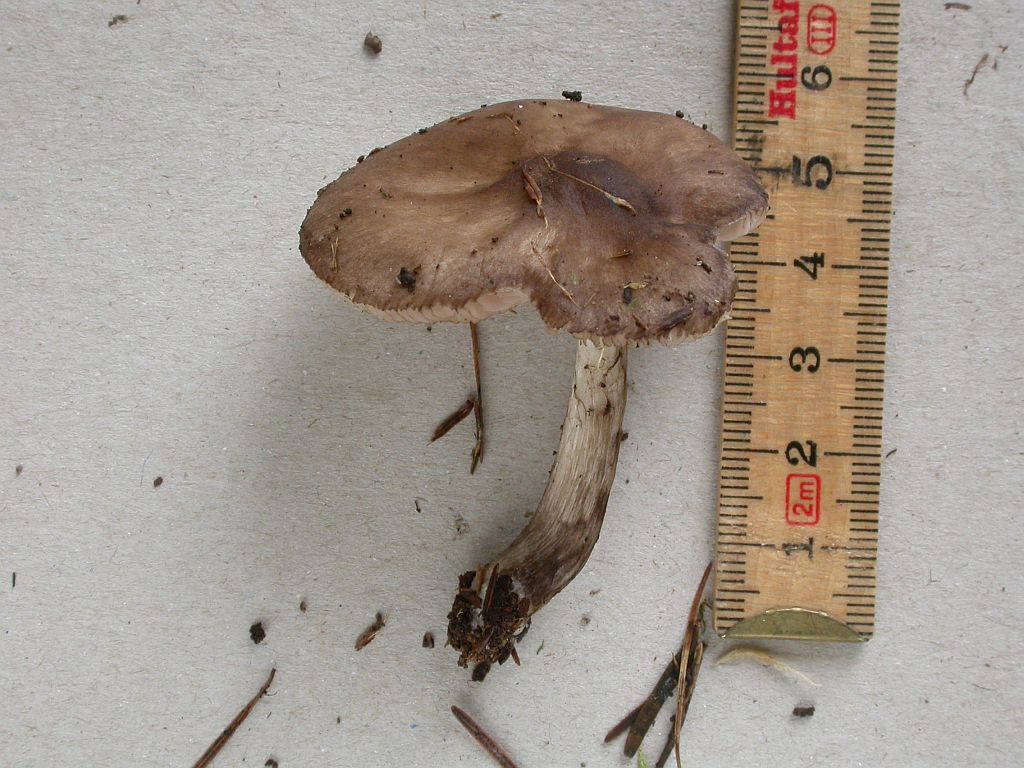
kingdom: Fungi
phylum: Basidiomycota
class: Agaricomycetes
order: Agaricales
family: Pluteaceae
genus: Pluteus
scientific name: Pluteus pouzarianus
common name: plantage-skærmhat
